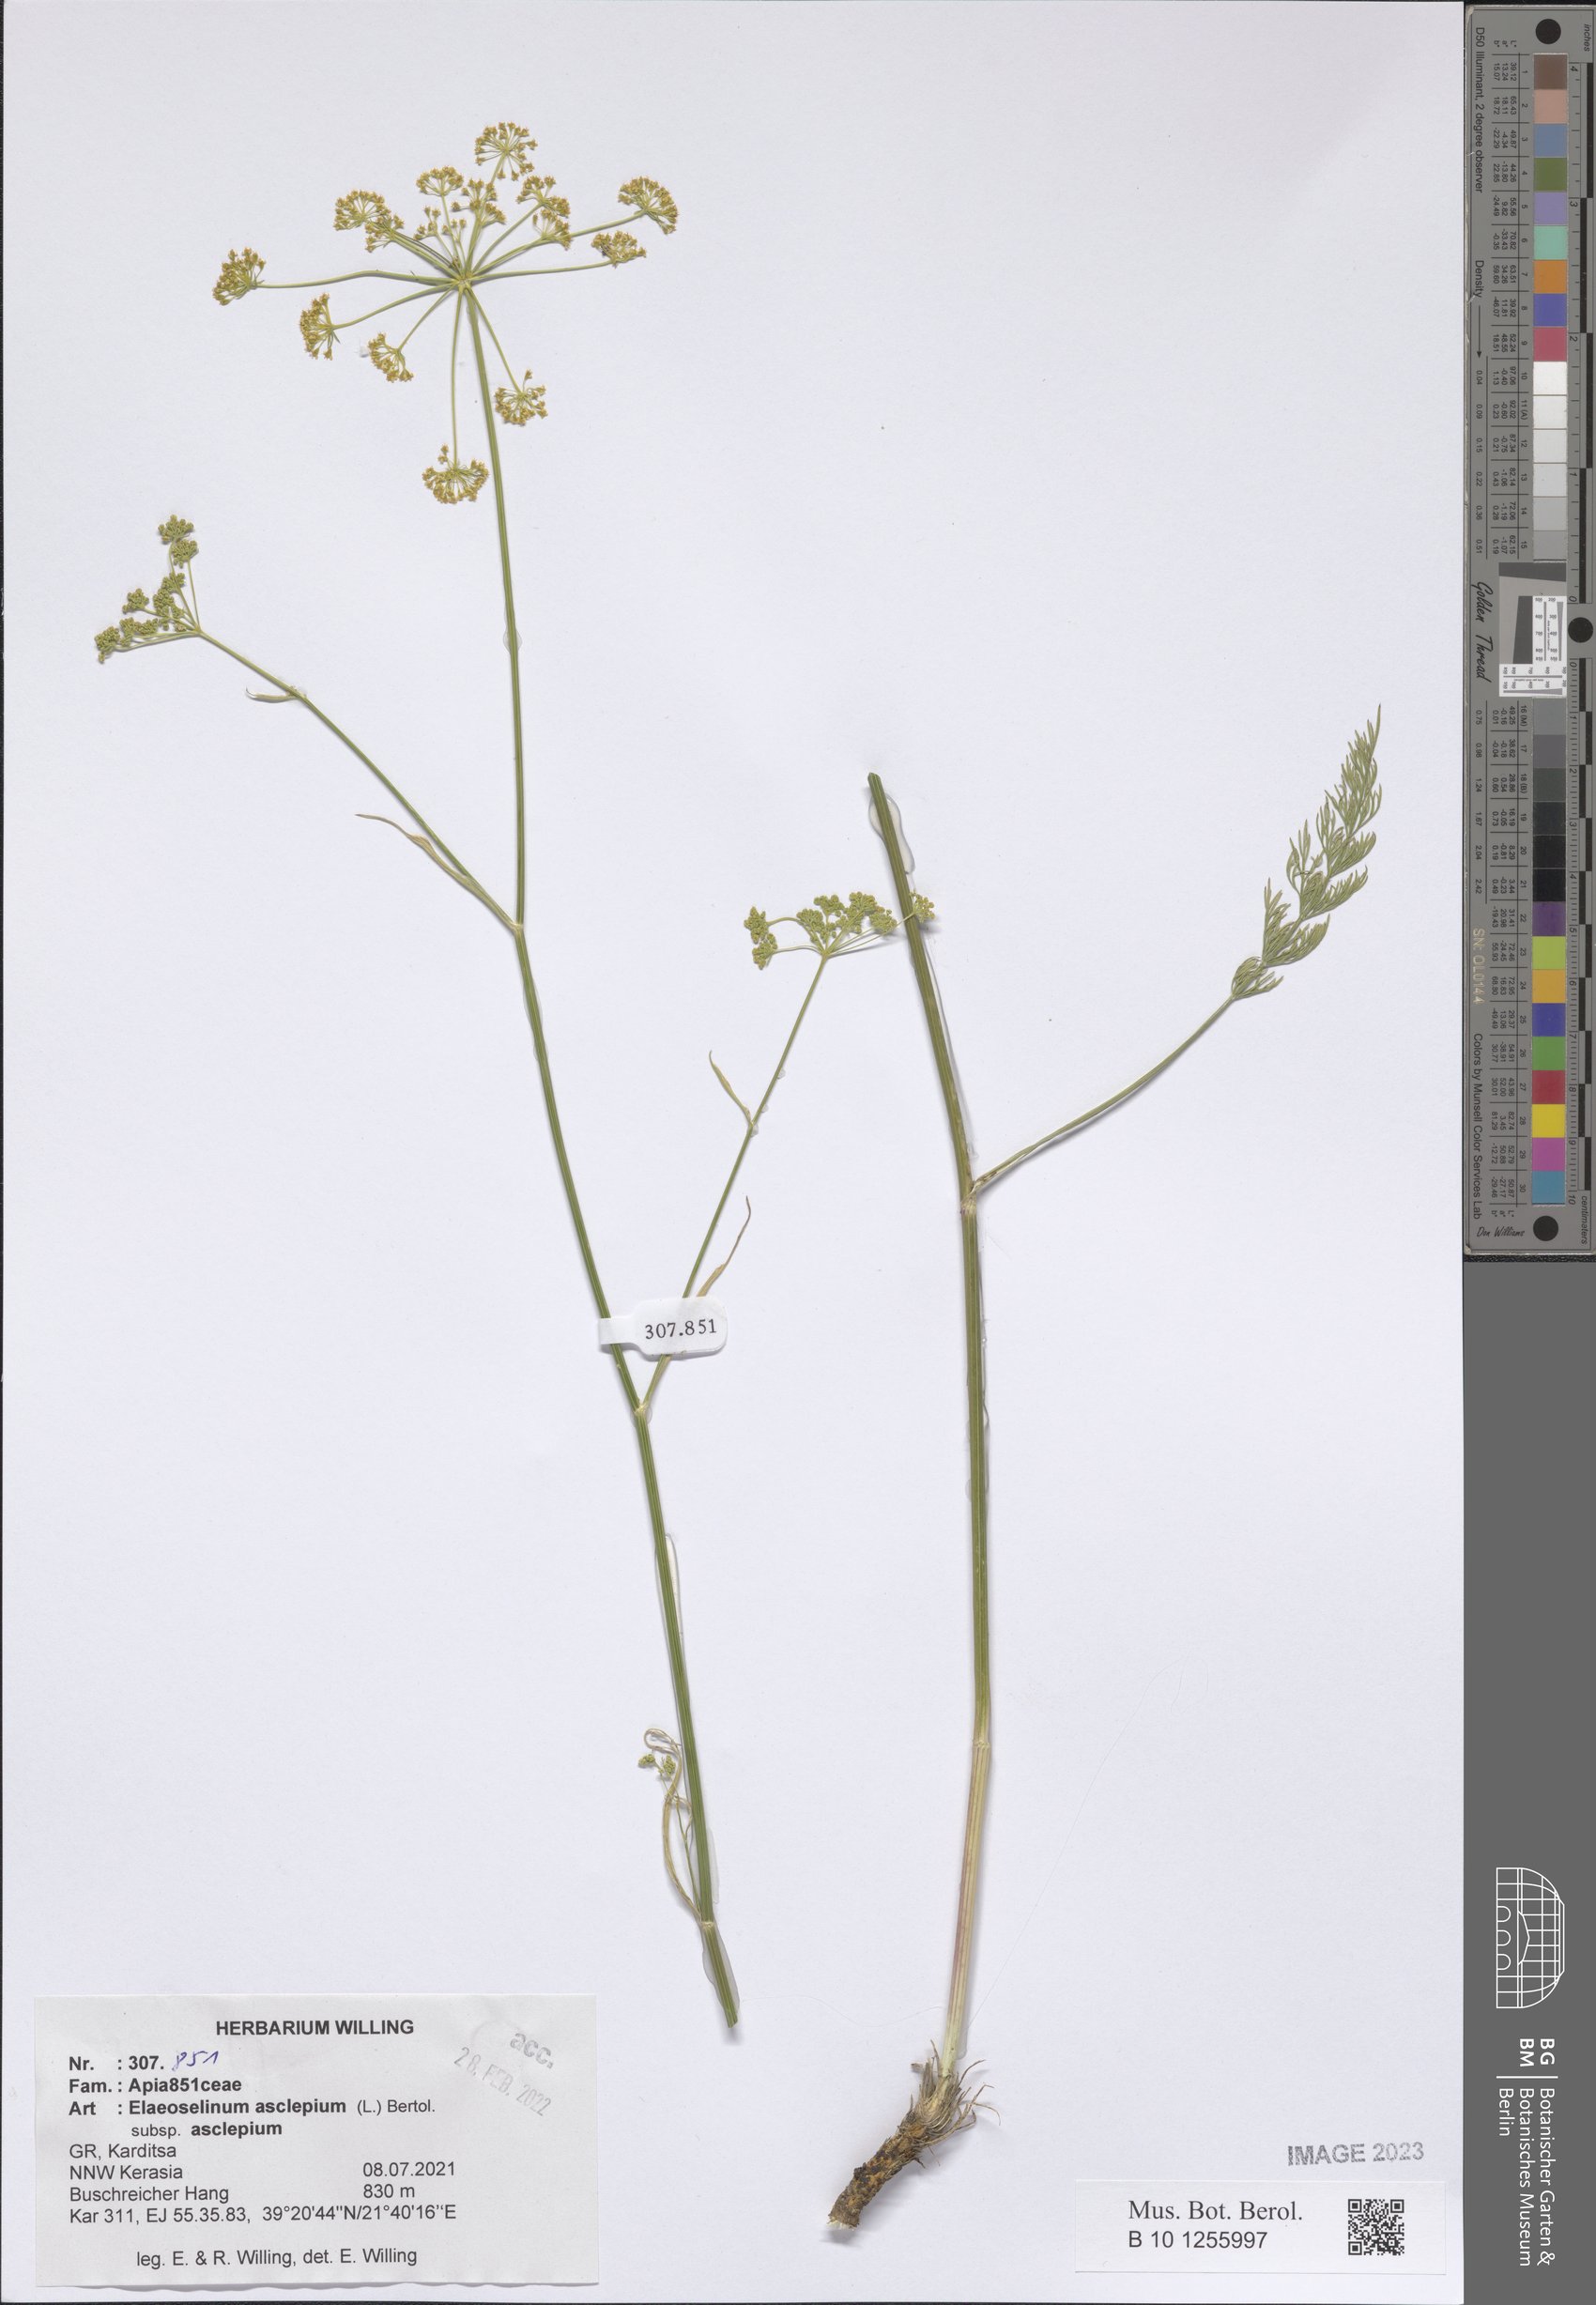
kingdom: Plantae
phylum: Tracheophyta
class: Magnoliopsida
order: Apiales
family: Apiaceae
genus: Thapsia
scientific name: Thapsia asclepium
